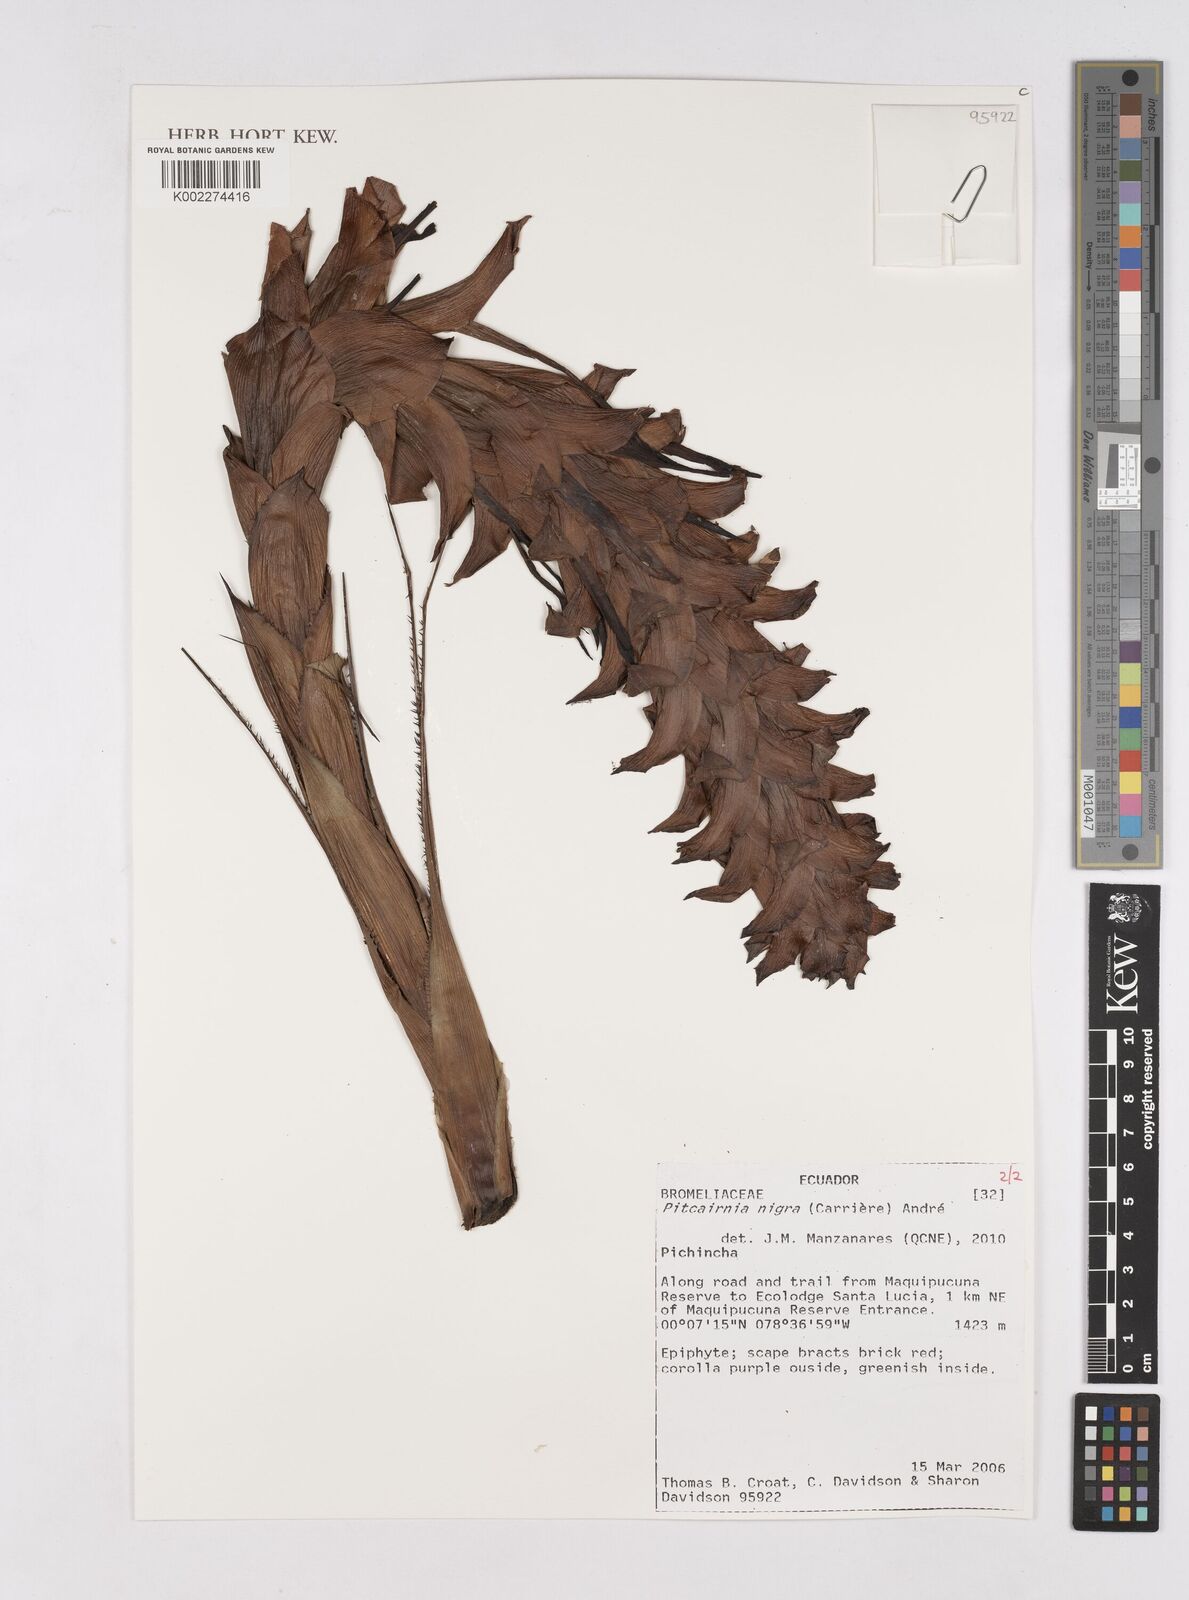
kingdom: Plantae
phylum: Tracheophyta
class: Liliopsida
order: Poales
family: Bromeliaceae
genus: Pitcairnia
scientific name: Pitcairnia nigra
